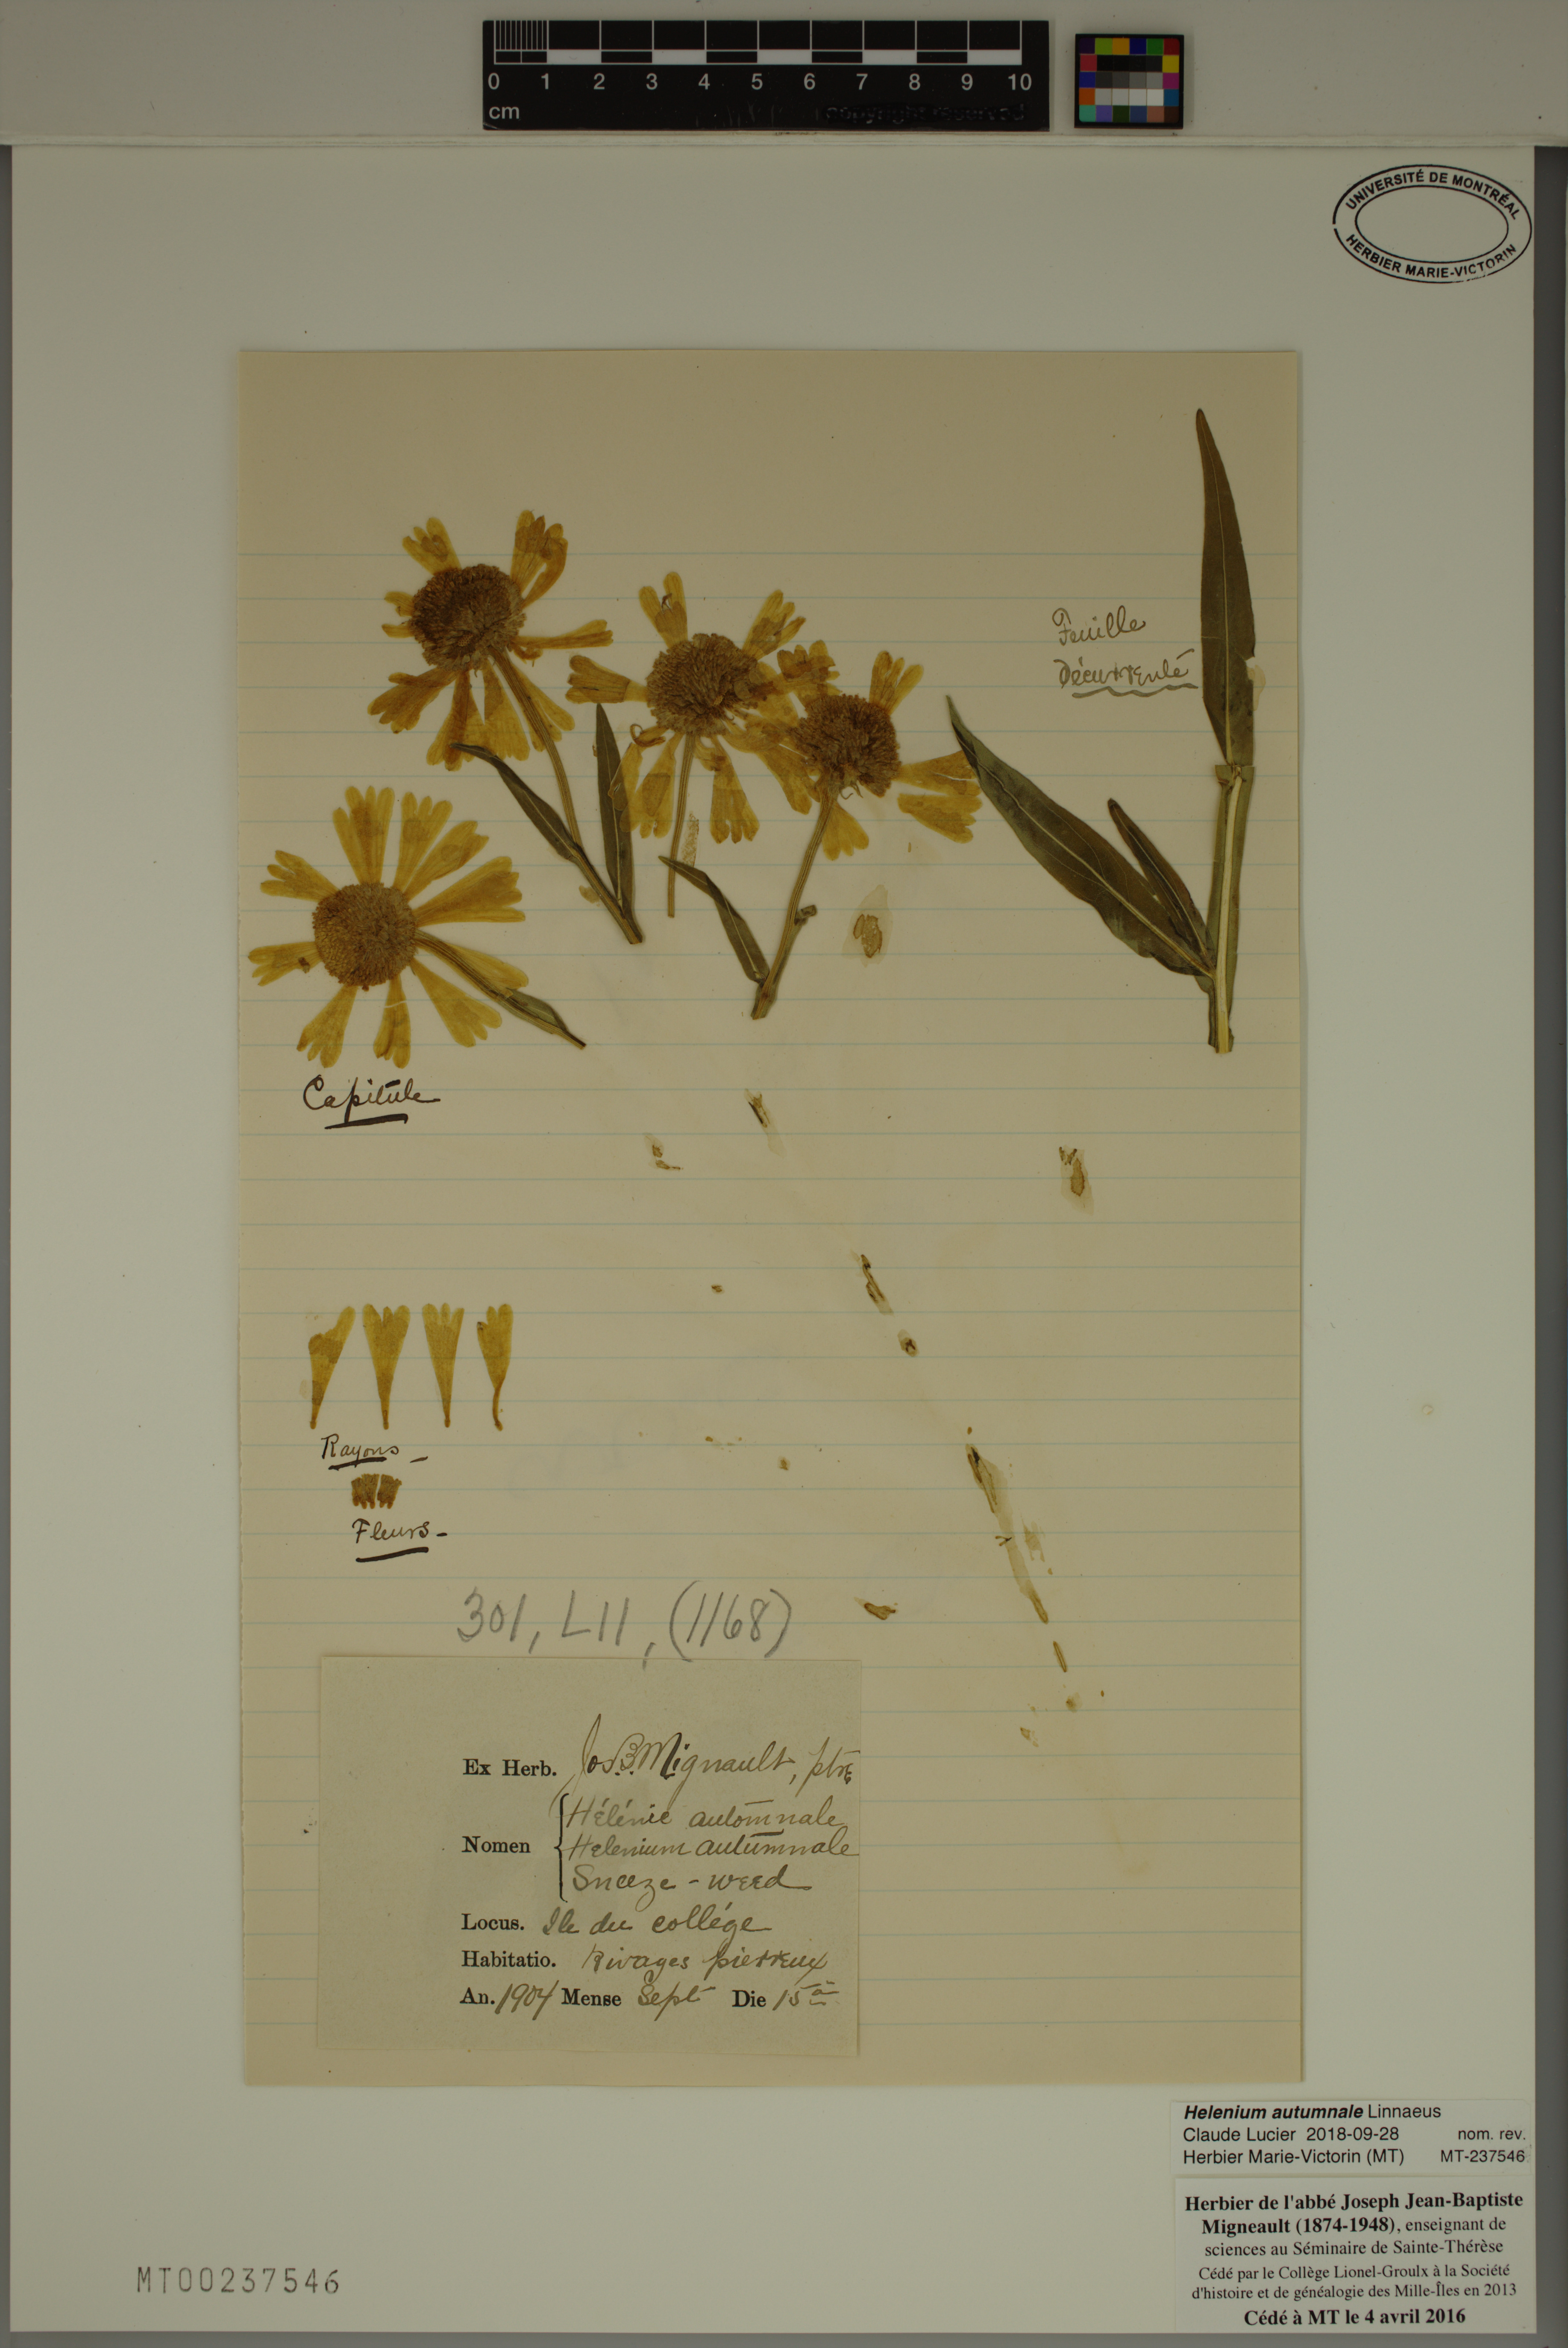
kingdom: Plantae
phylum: Tracheophyta
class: Magnoliopsida
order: Asterales
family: Asteraceae
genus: Helenium
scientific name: Helenium autumnale
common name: Sneezeweed
